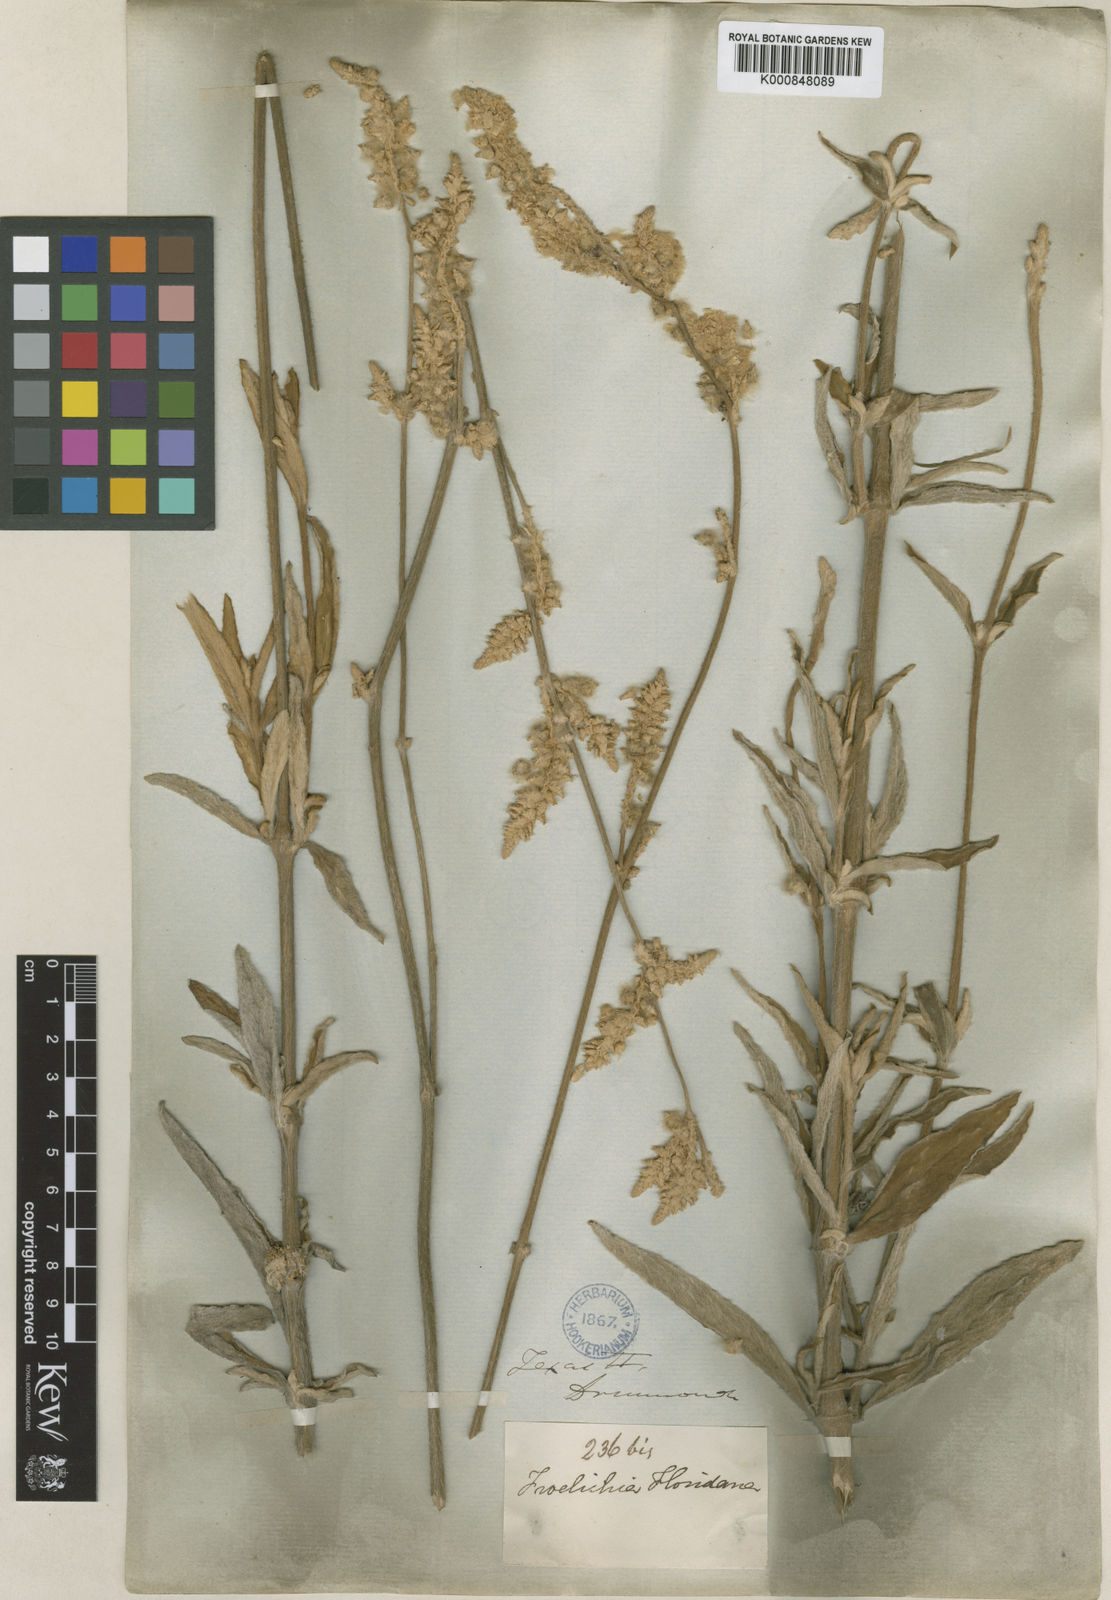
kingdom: Plantae
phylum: Tracheophyta
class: Magnoliopsida
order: Caryophyllales
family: Amaranthaceae
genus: Froelichia
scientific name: Froelichia floridana
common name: Florida snake-cotton
